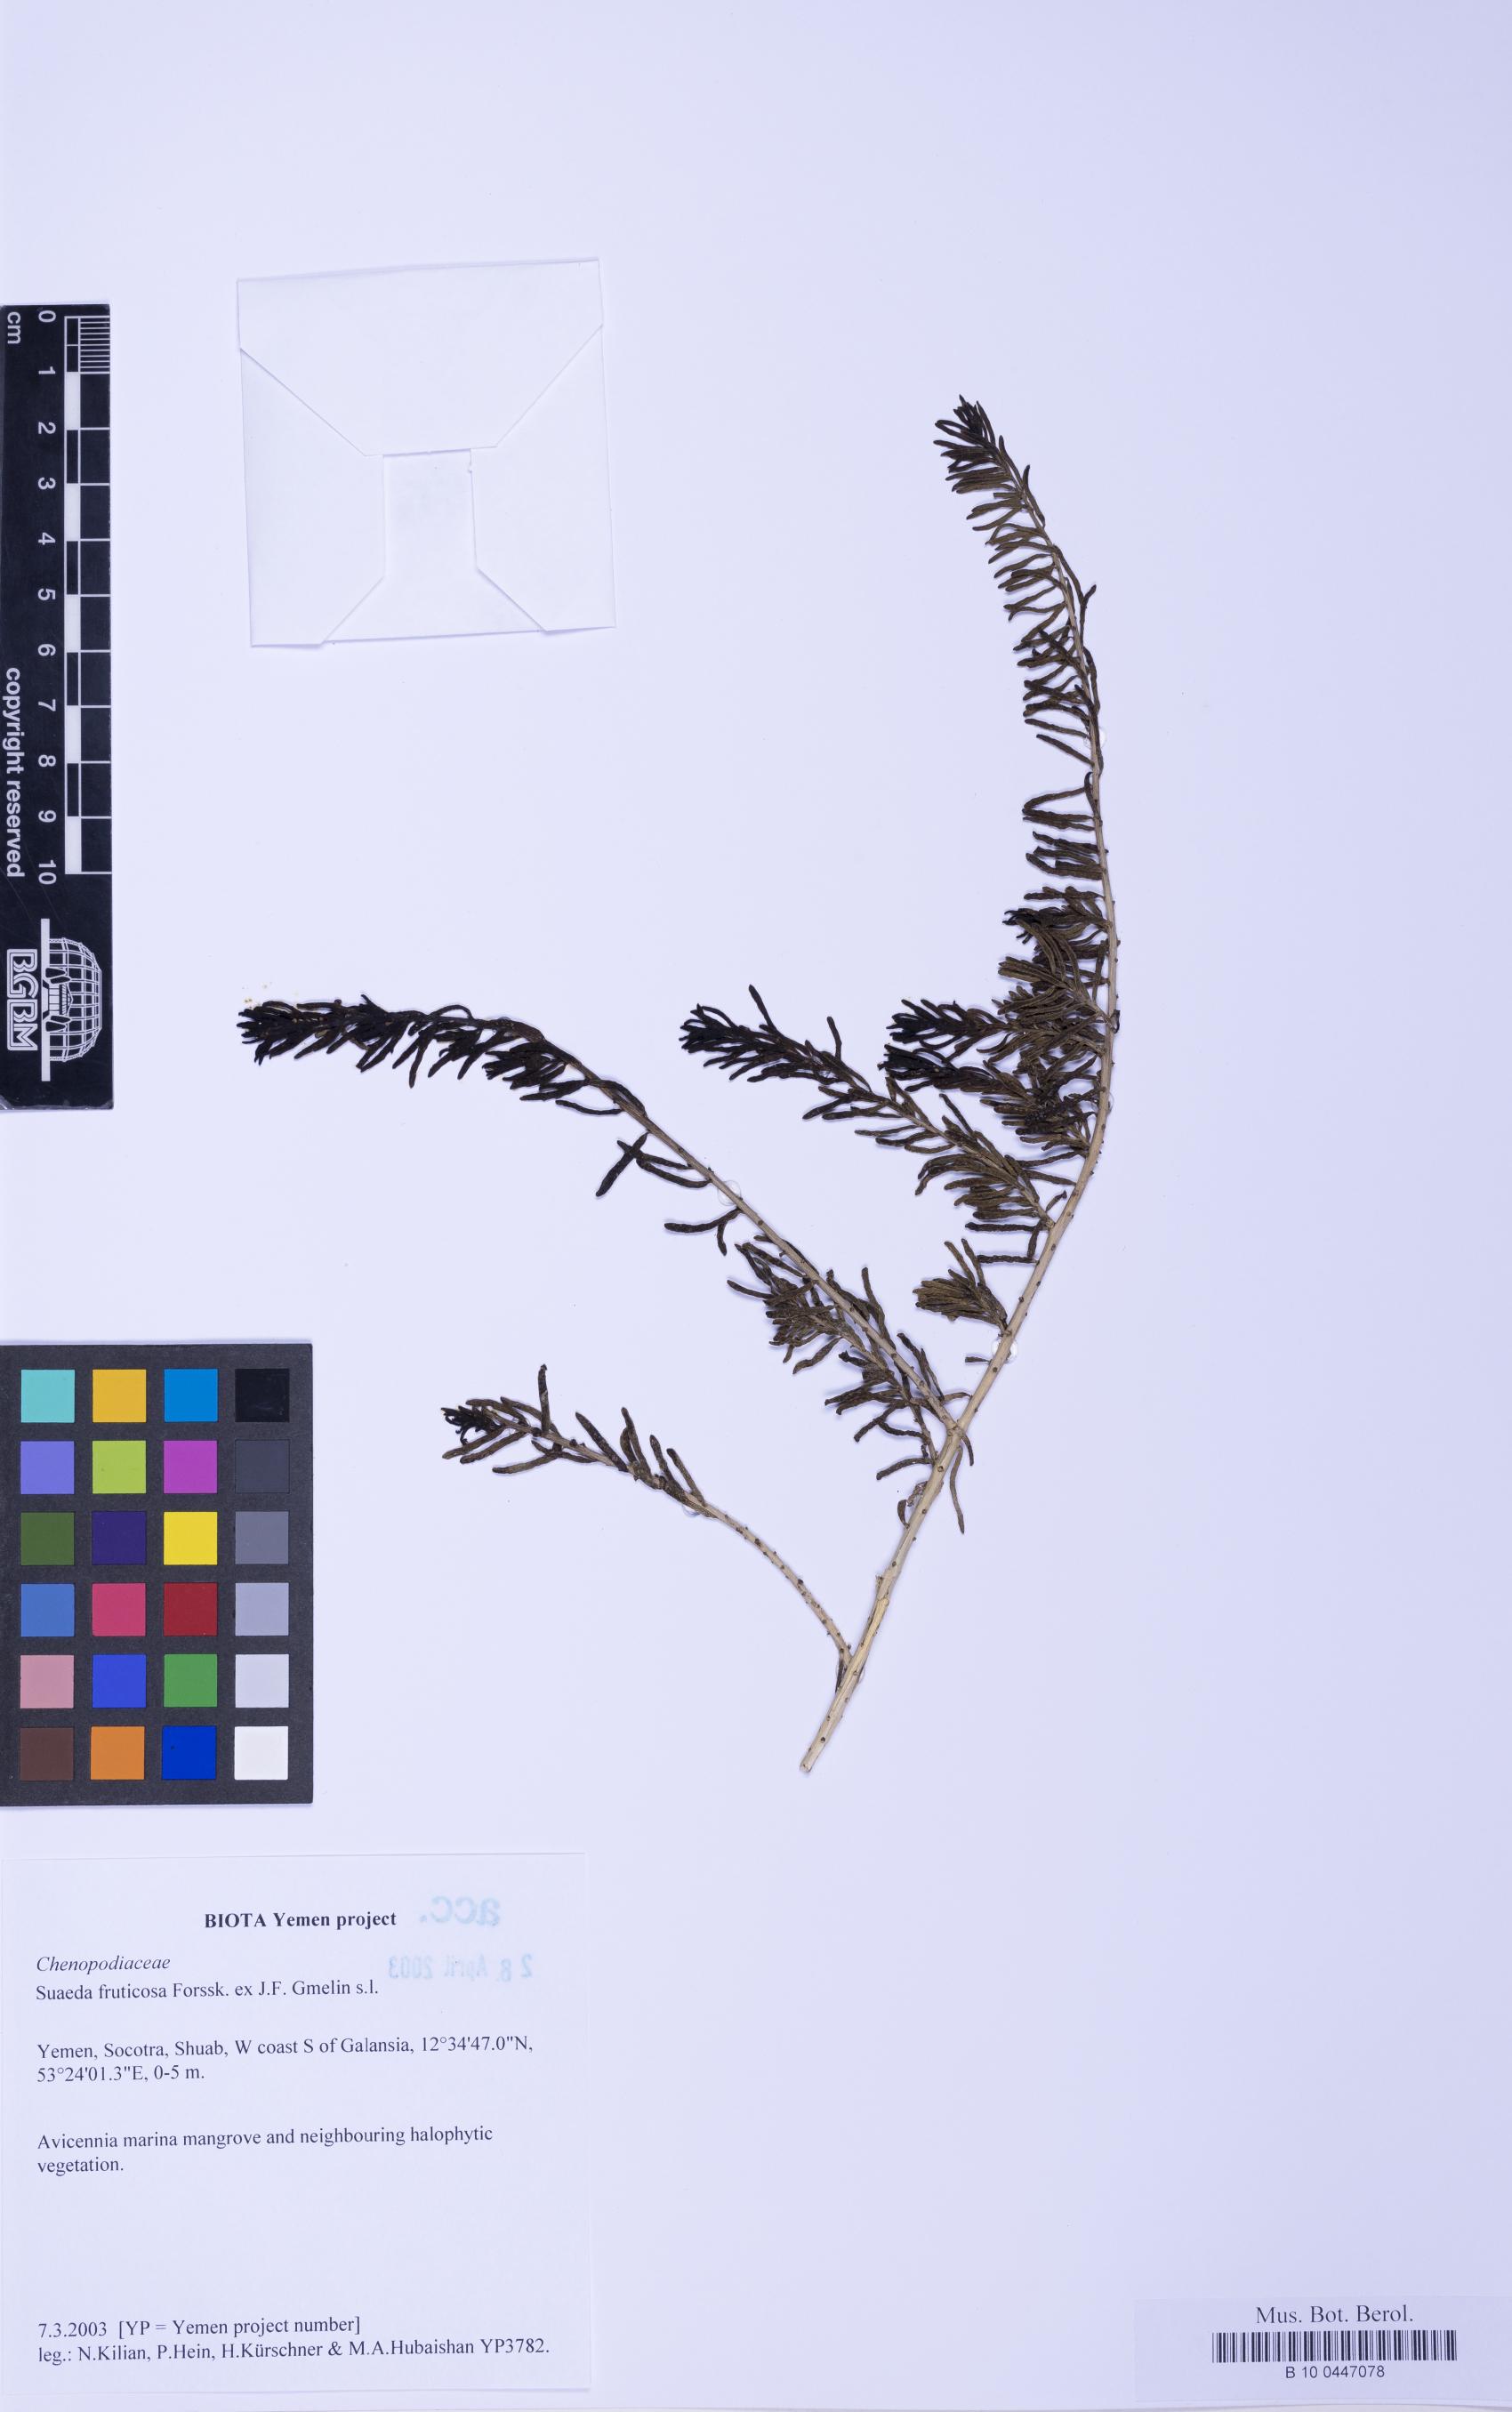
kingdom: Plantae
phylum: Tracheophyta
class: Magnoliopsida
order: Caryophyllales
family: Amaranthaceae
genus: Suaeda
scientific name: Suaeda vermiculata
